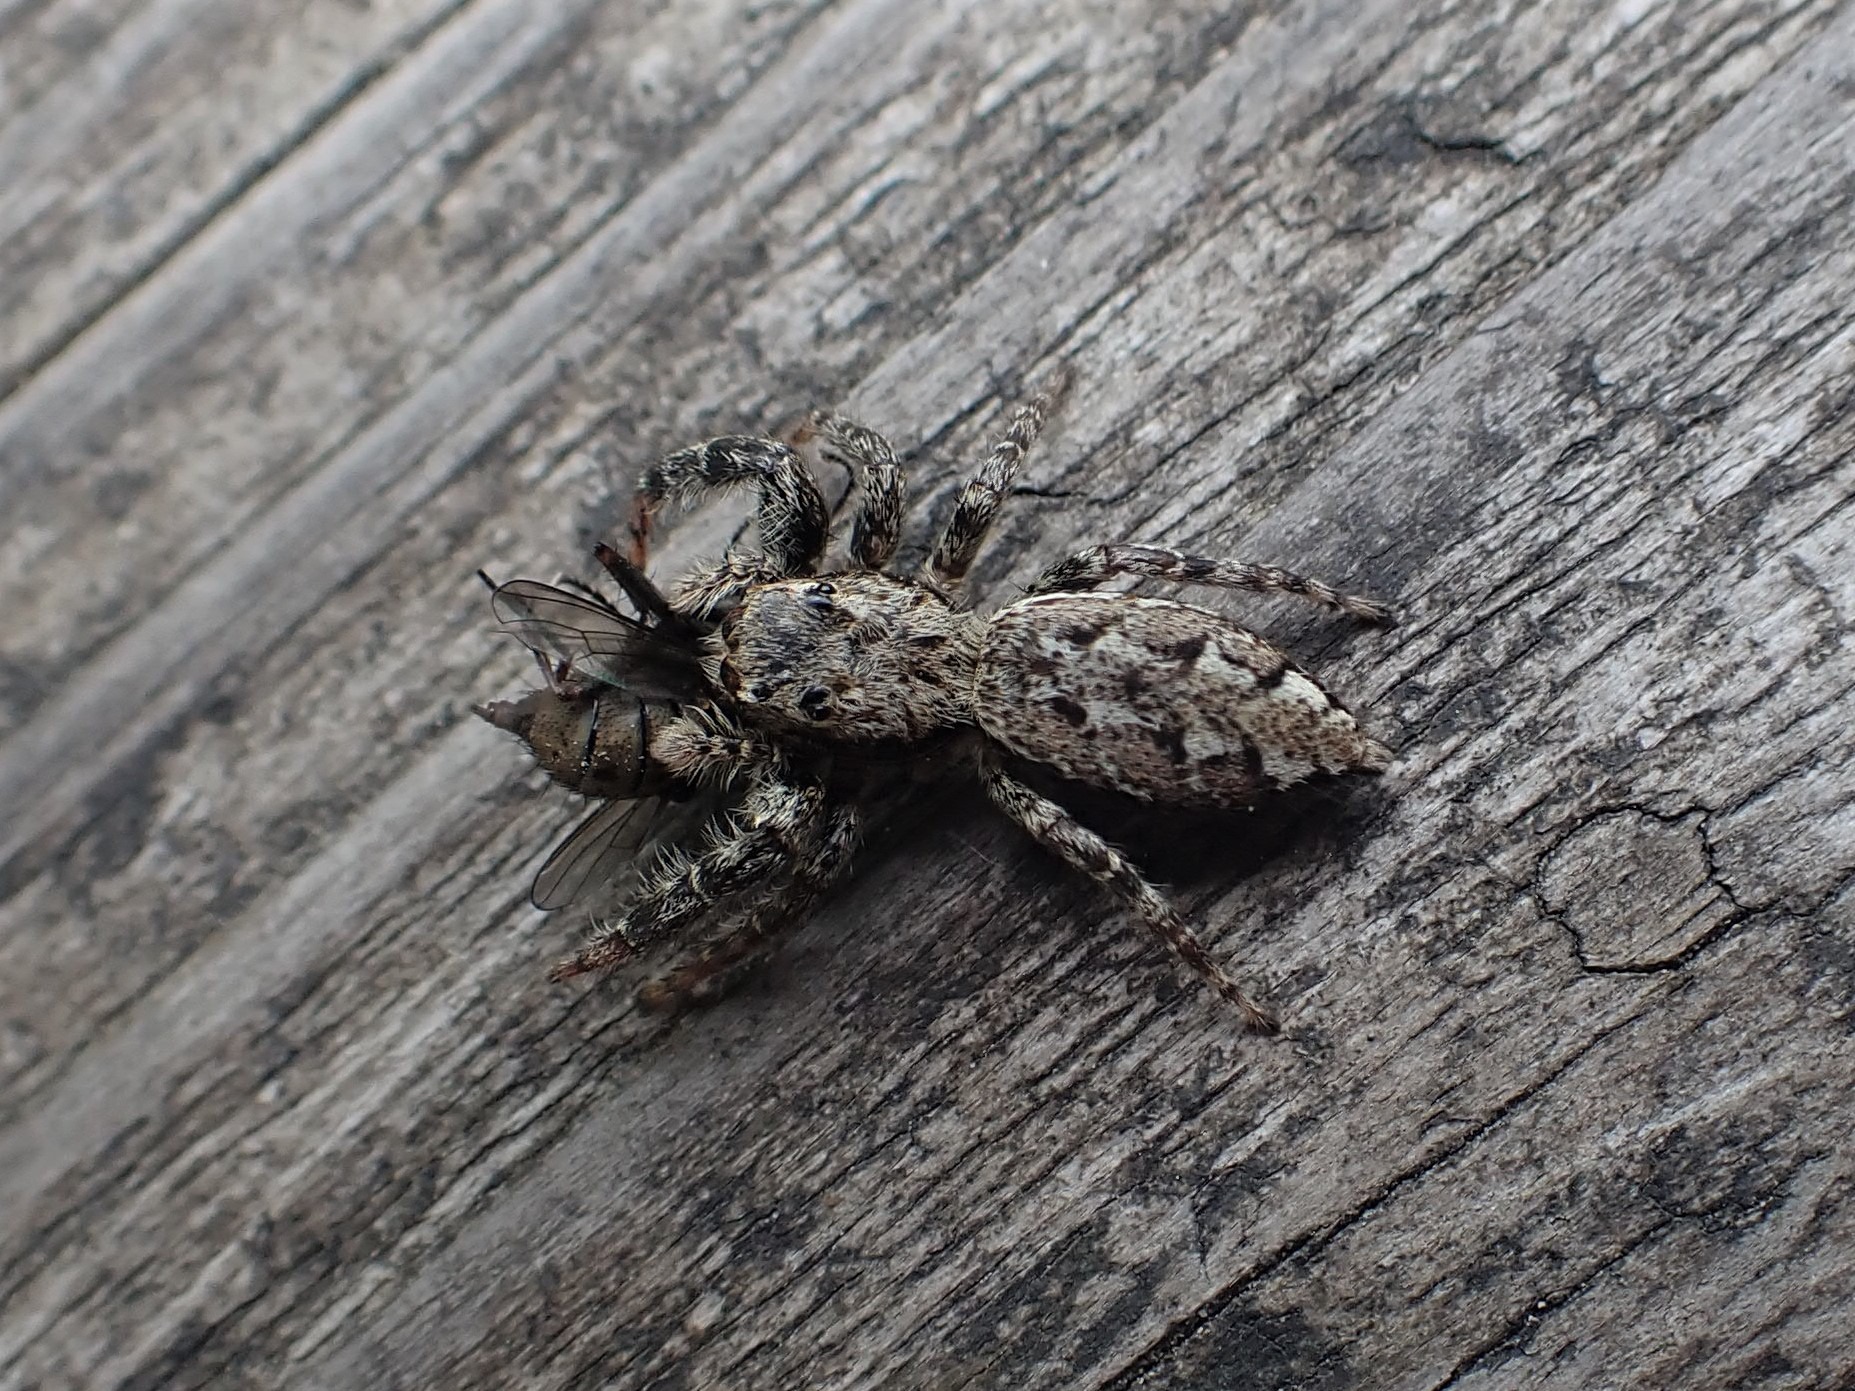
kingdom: Animalia
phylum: Arthropoda
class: Arachnida
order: Araneae
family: Salticidae
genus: Marpissa
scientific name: Marpissa muscosa
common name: Stor springedderkop
